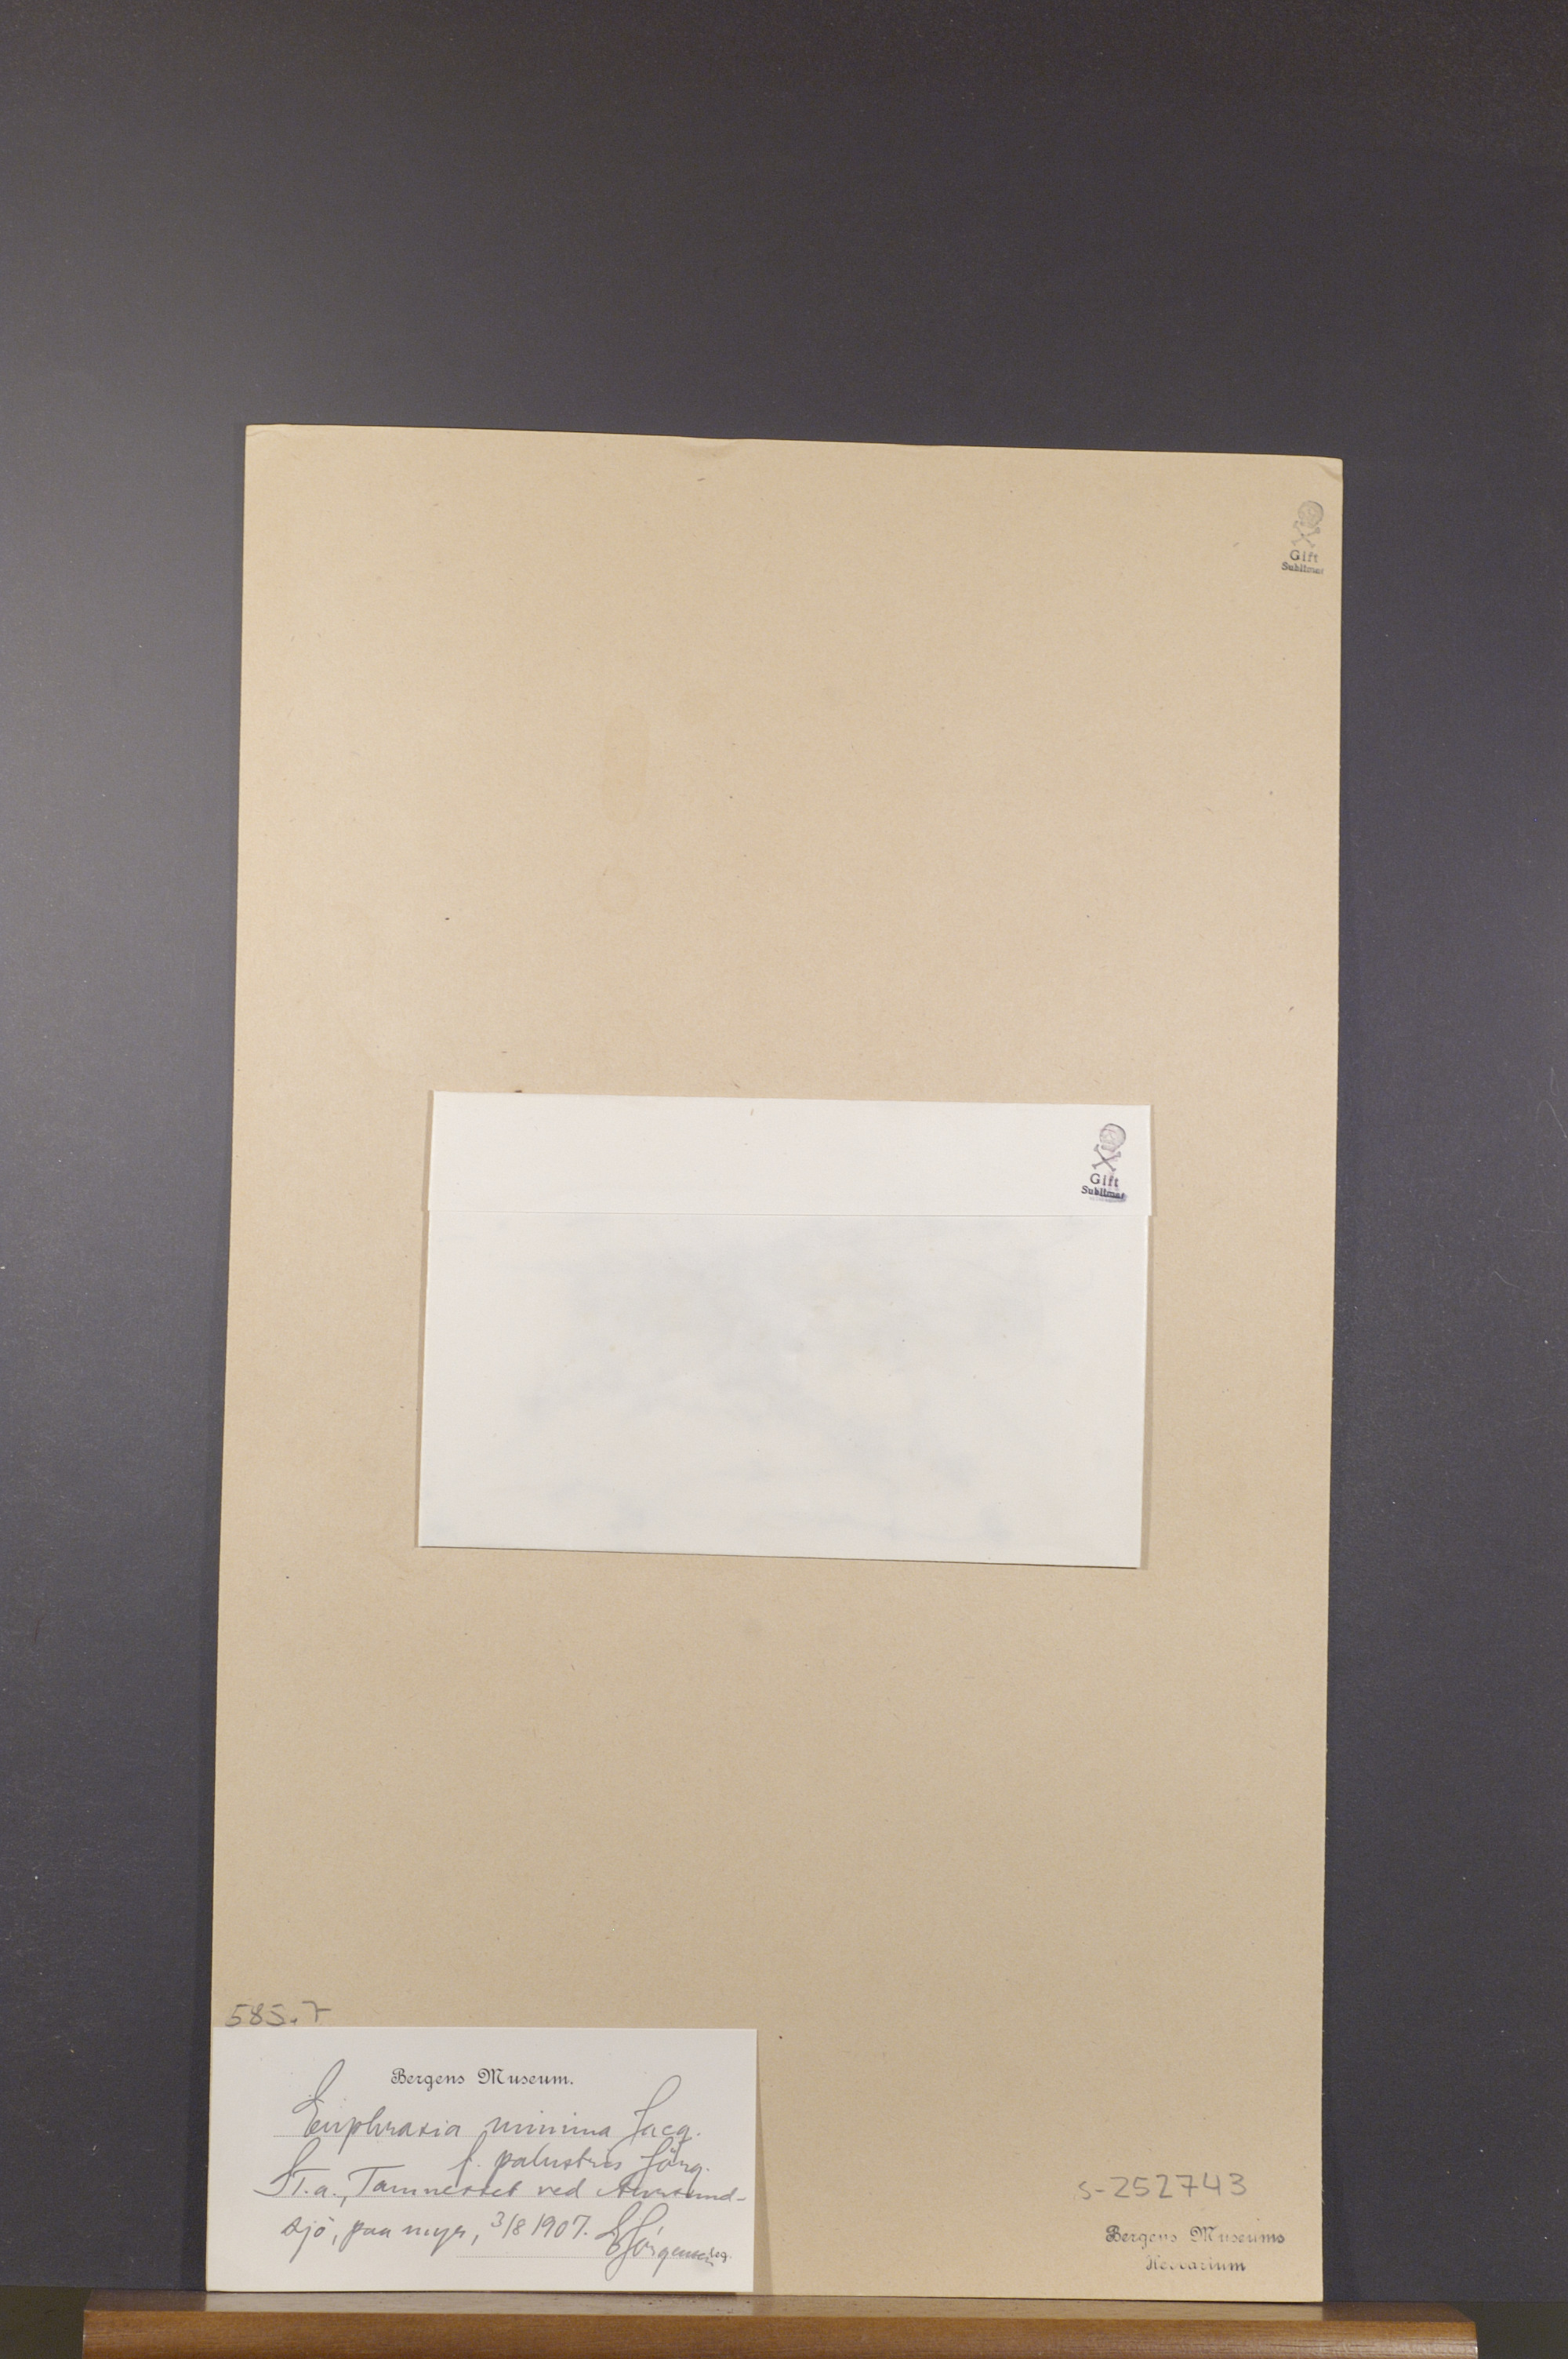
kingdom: Plantae
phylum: Tracheophyta
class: Magnoliopsida
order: Lamiales
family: Orobanchaceae
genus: Euphrasia
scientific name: Euphrasia minima
